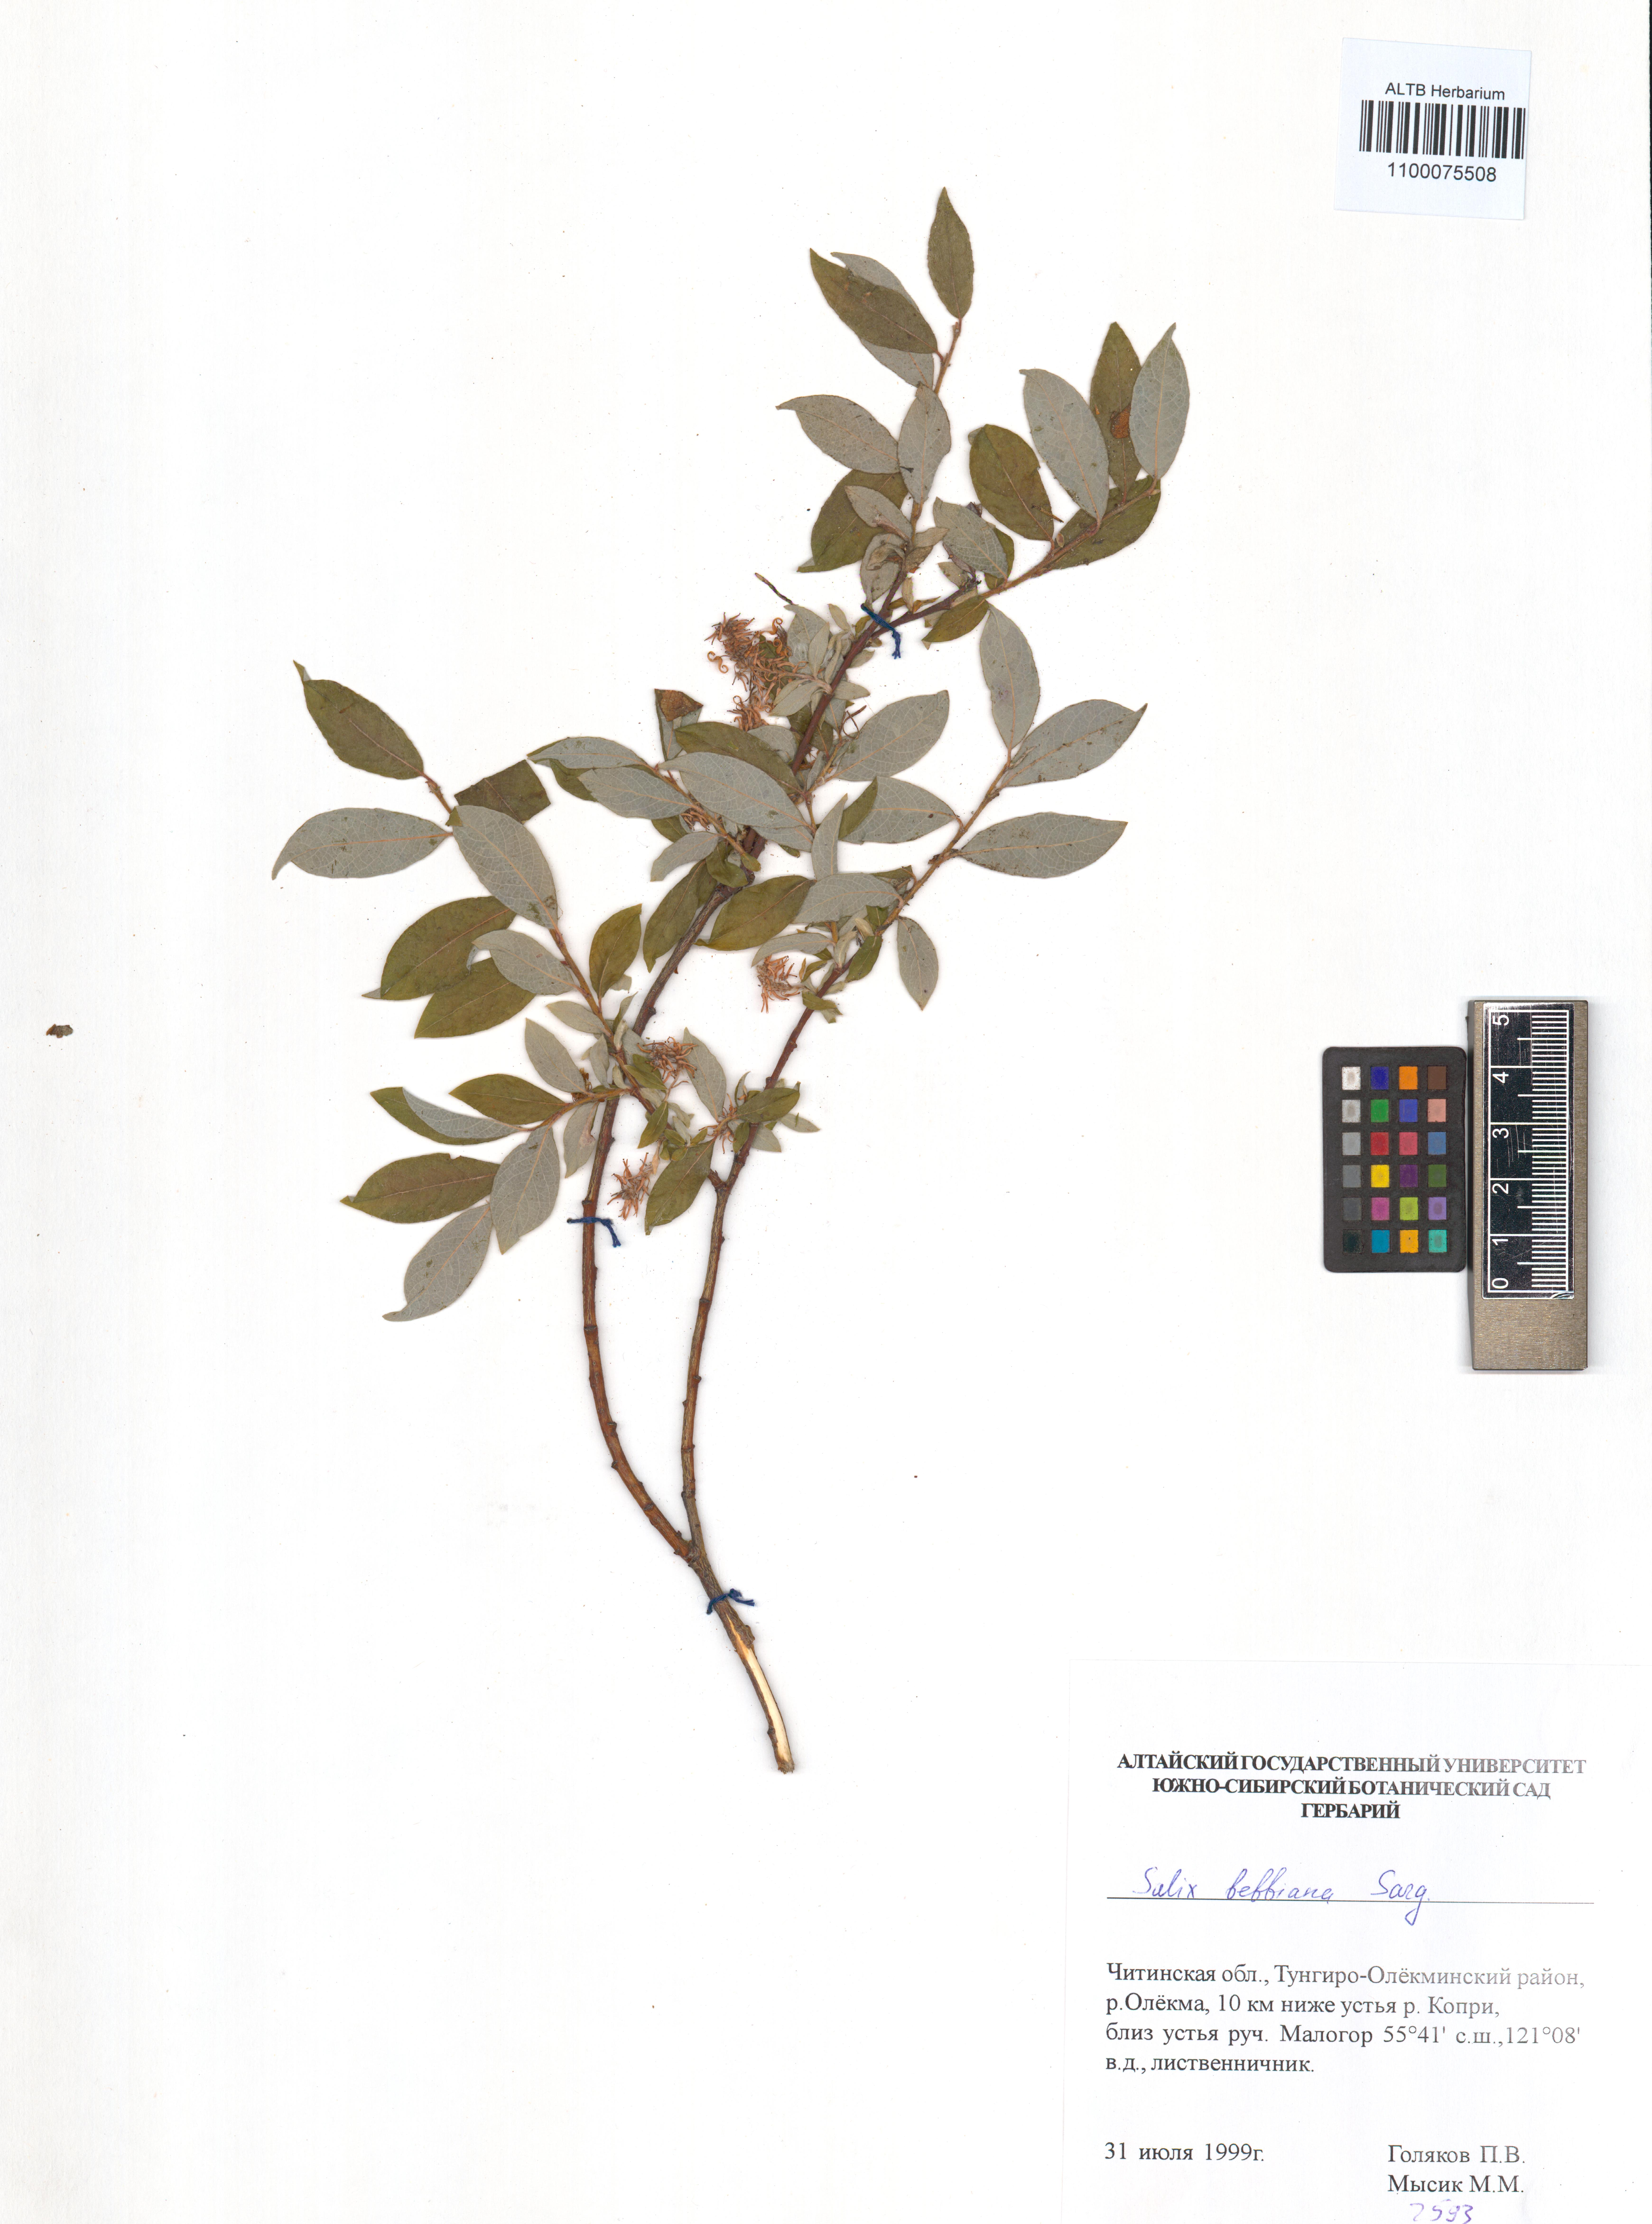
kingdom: Plantae
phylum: Tracheophyta
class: Magnoliopsida
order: Malpighiales
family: Salicaceae
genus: Salix
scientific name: Salix bebbiana
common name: Bebb's willow
